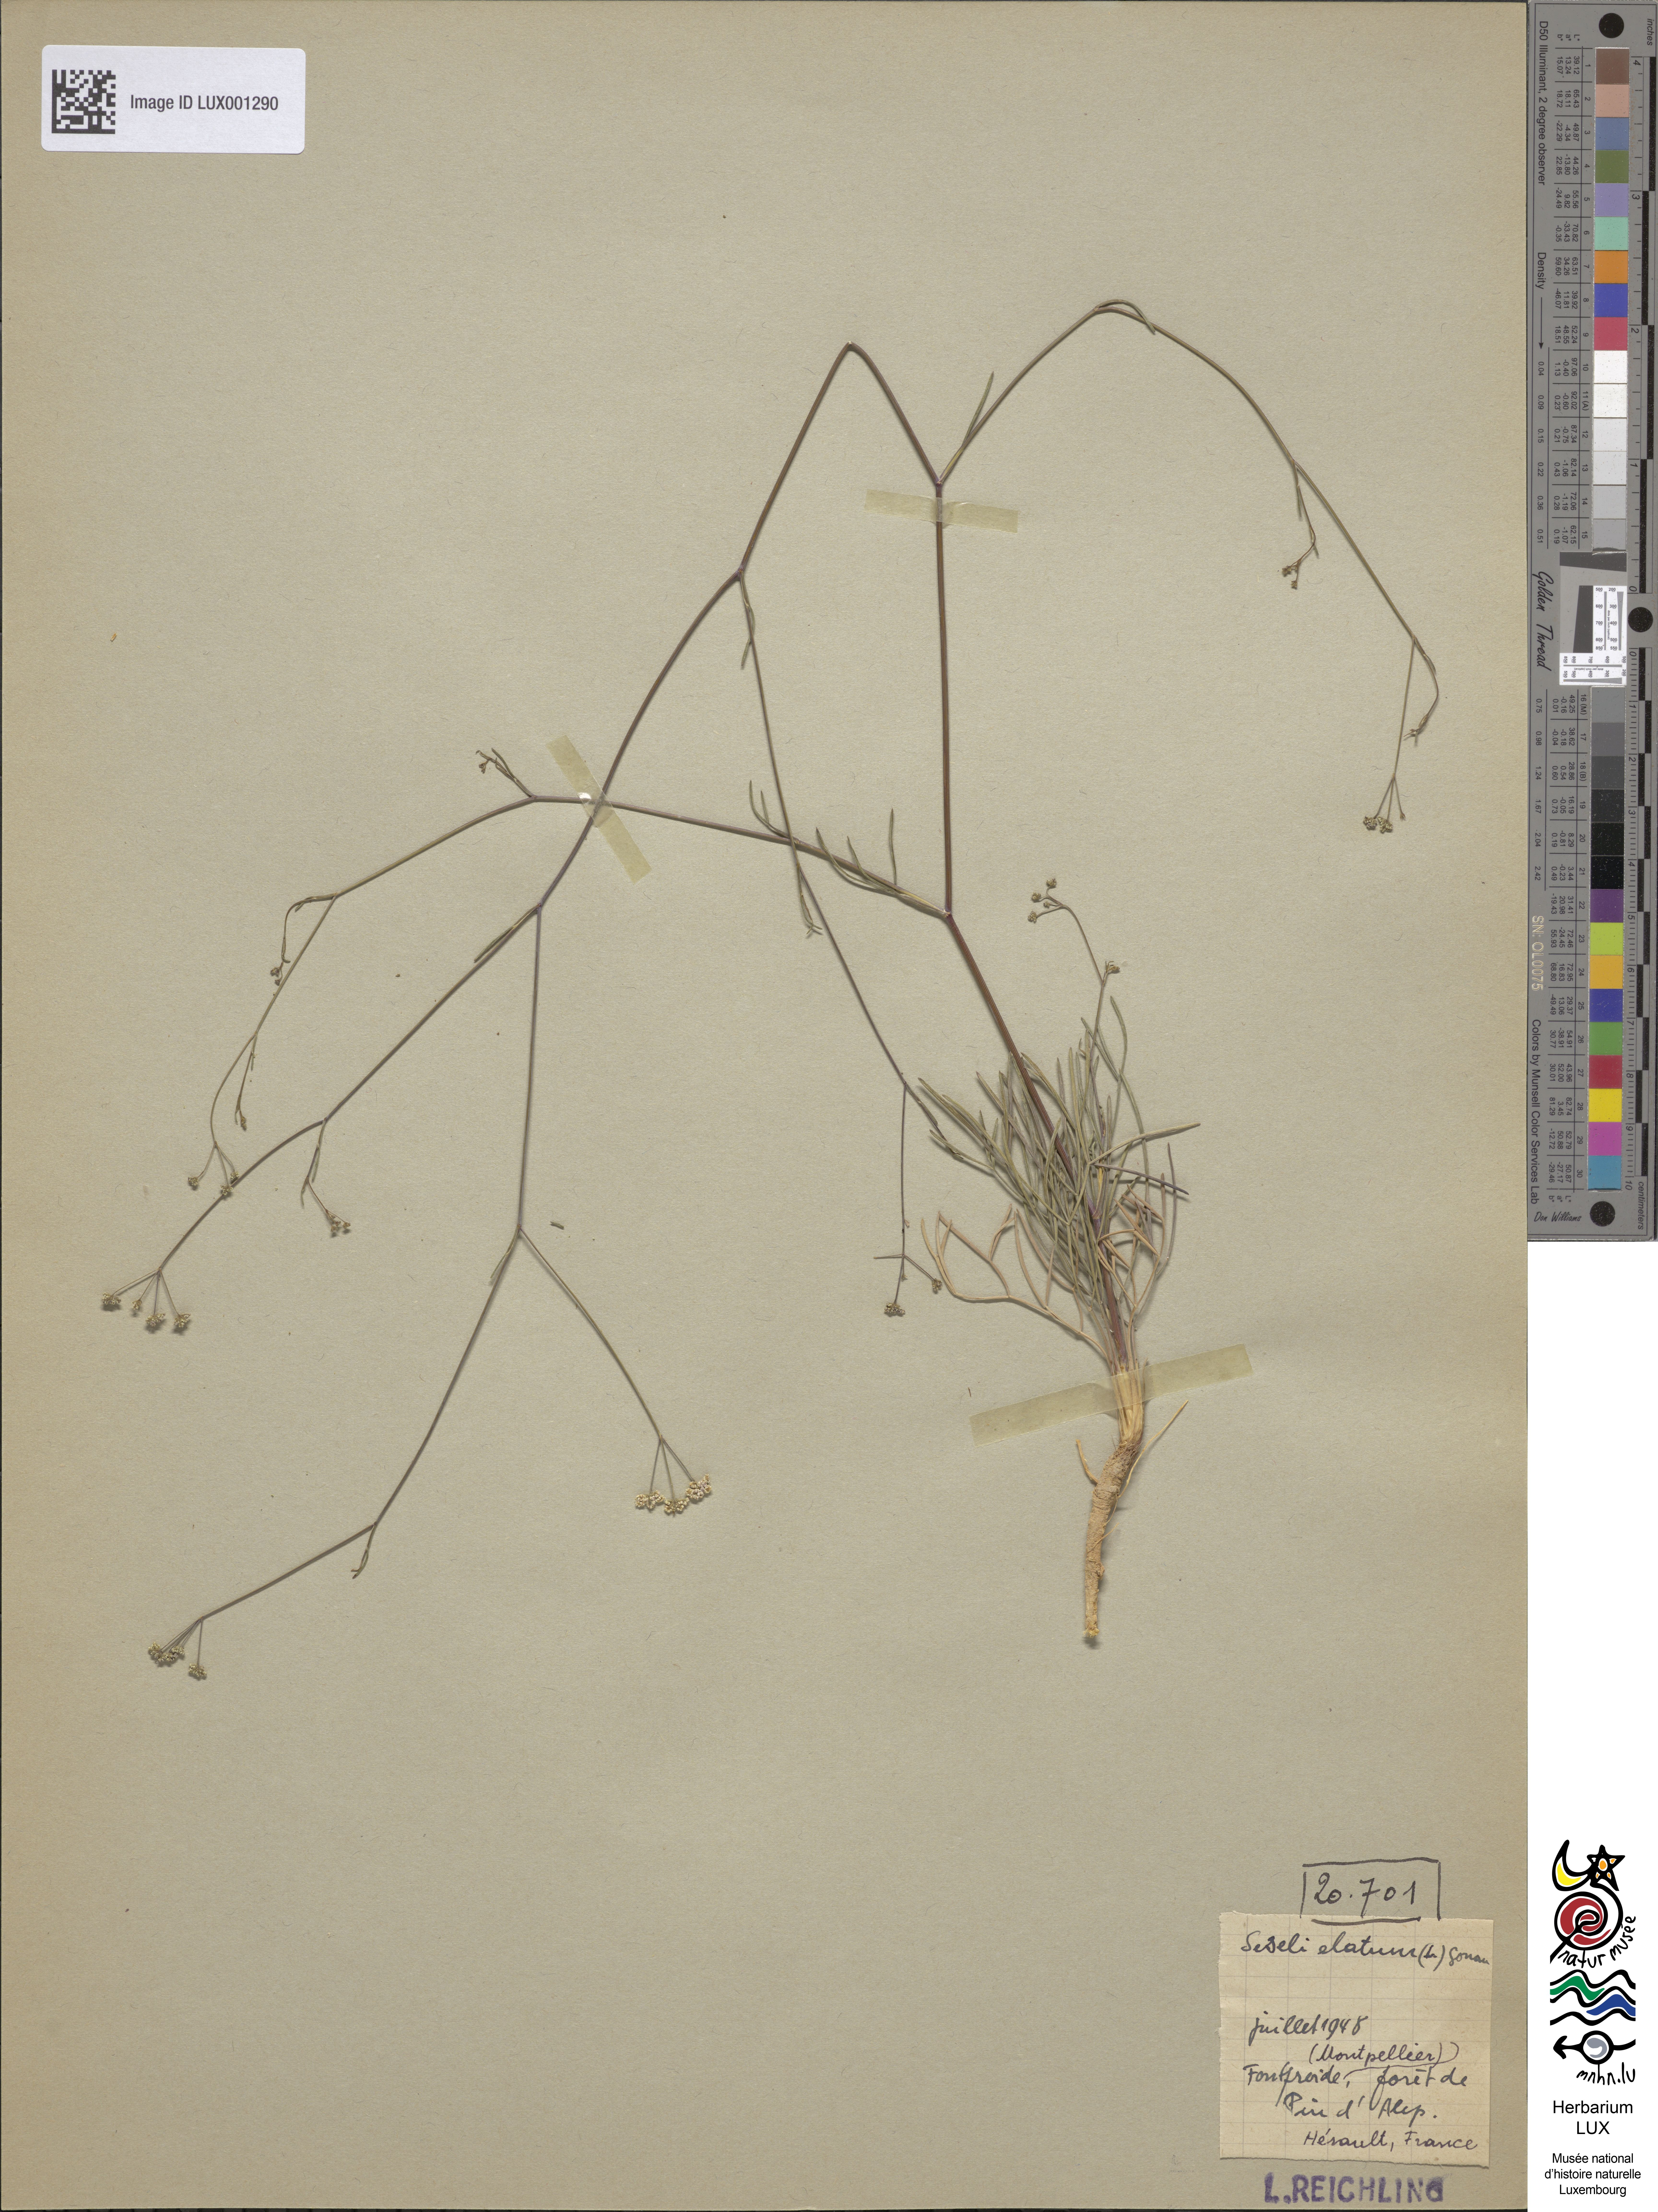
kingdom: Plantae
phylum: Tracheophyta
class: Magnoliopsida
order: Apiales
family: Apiaceae
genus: Seseli
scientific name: Seseli longifolium
